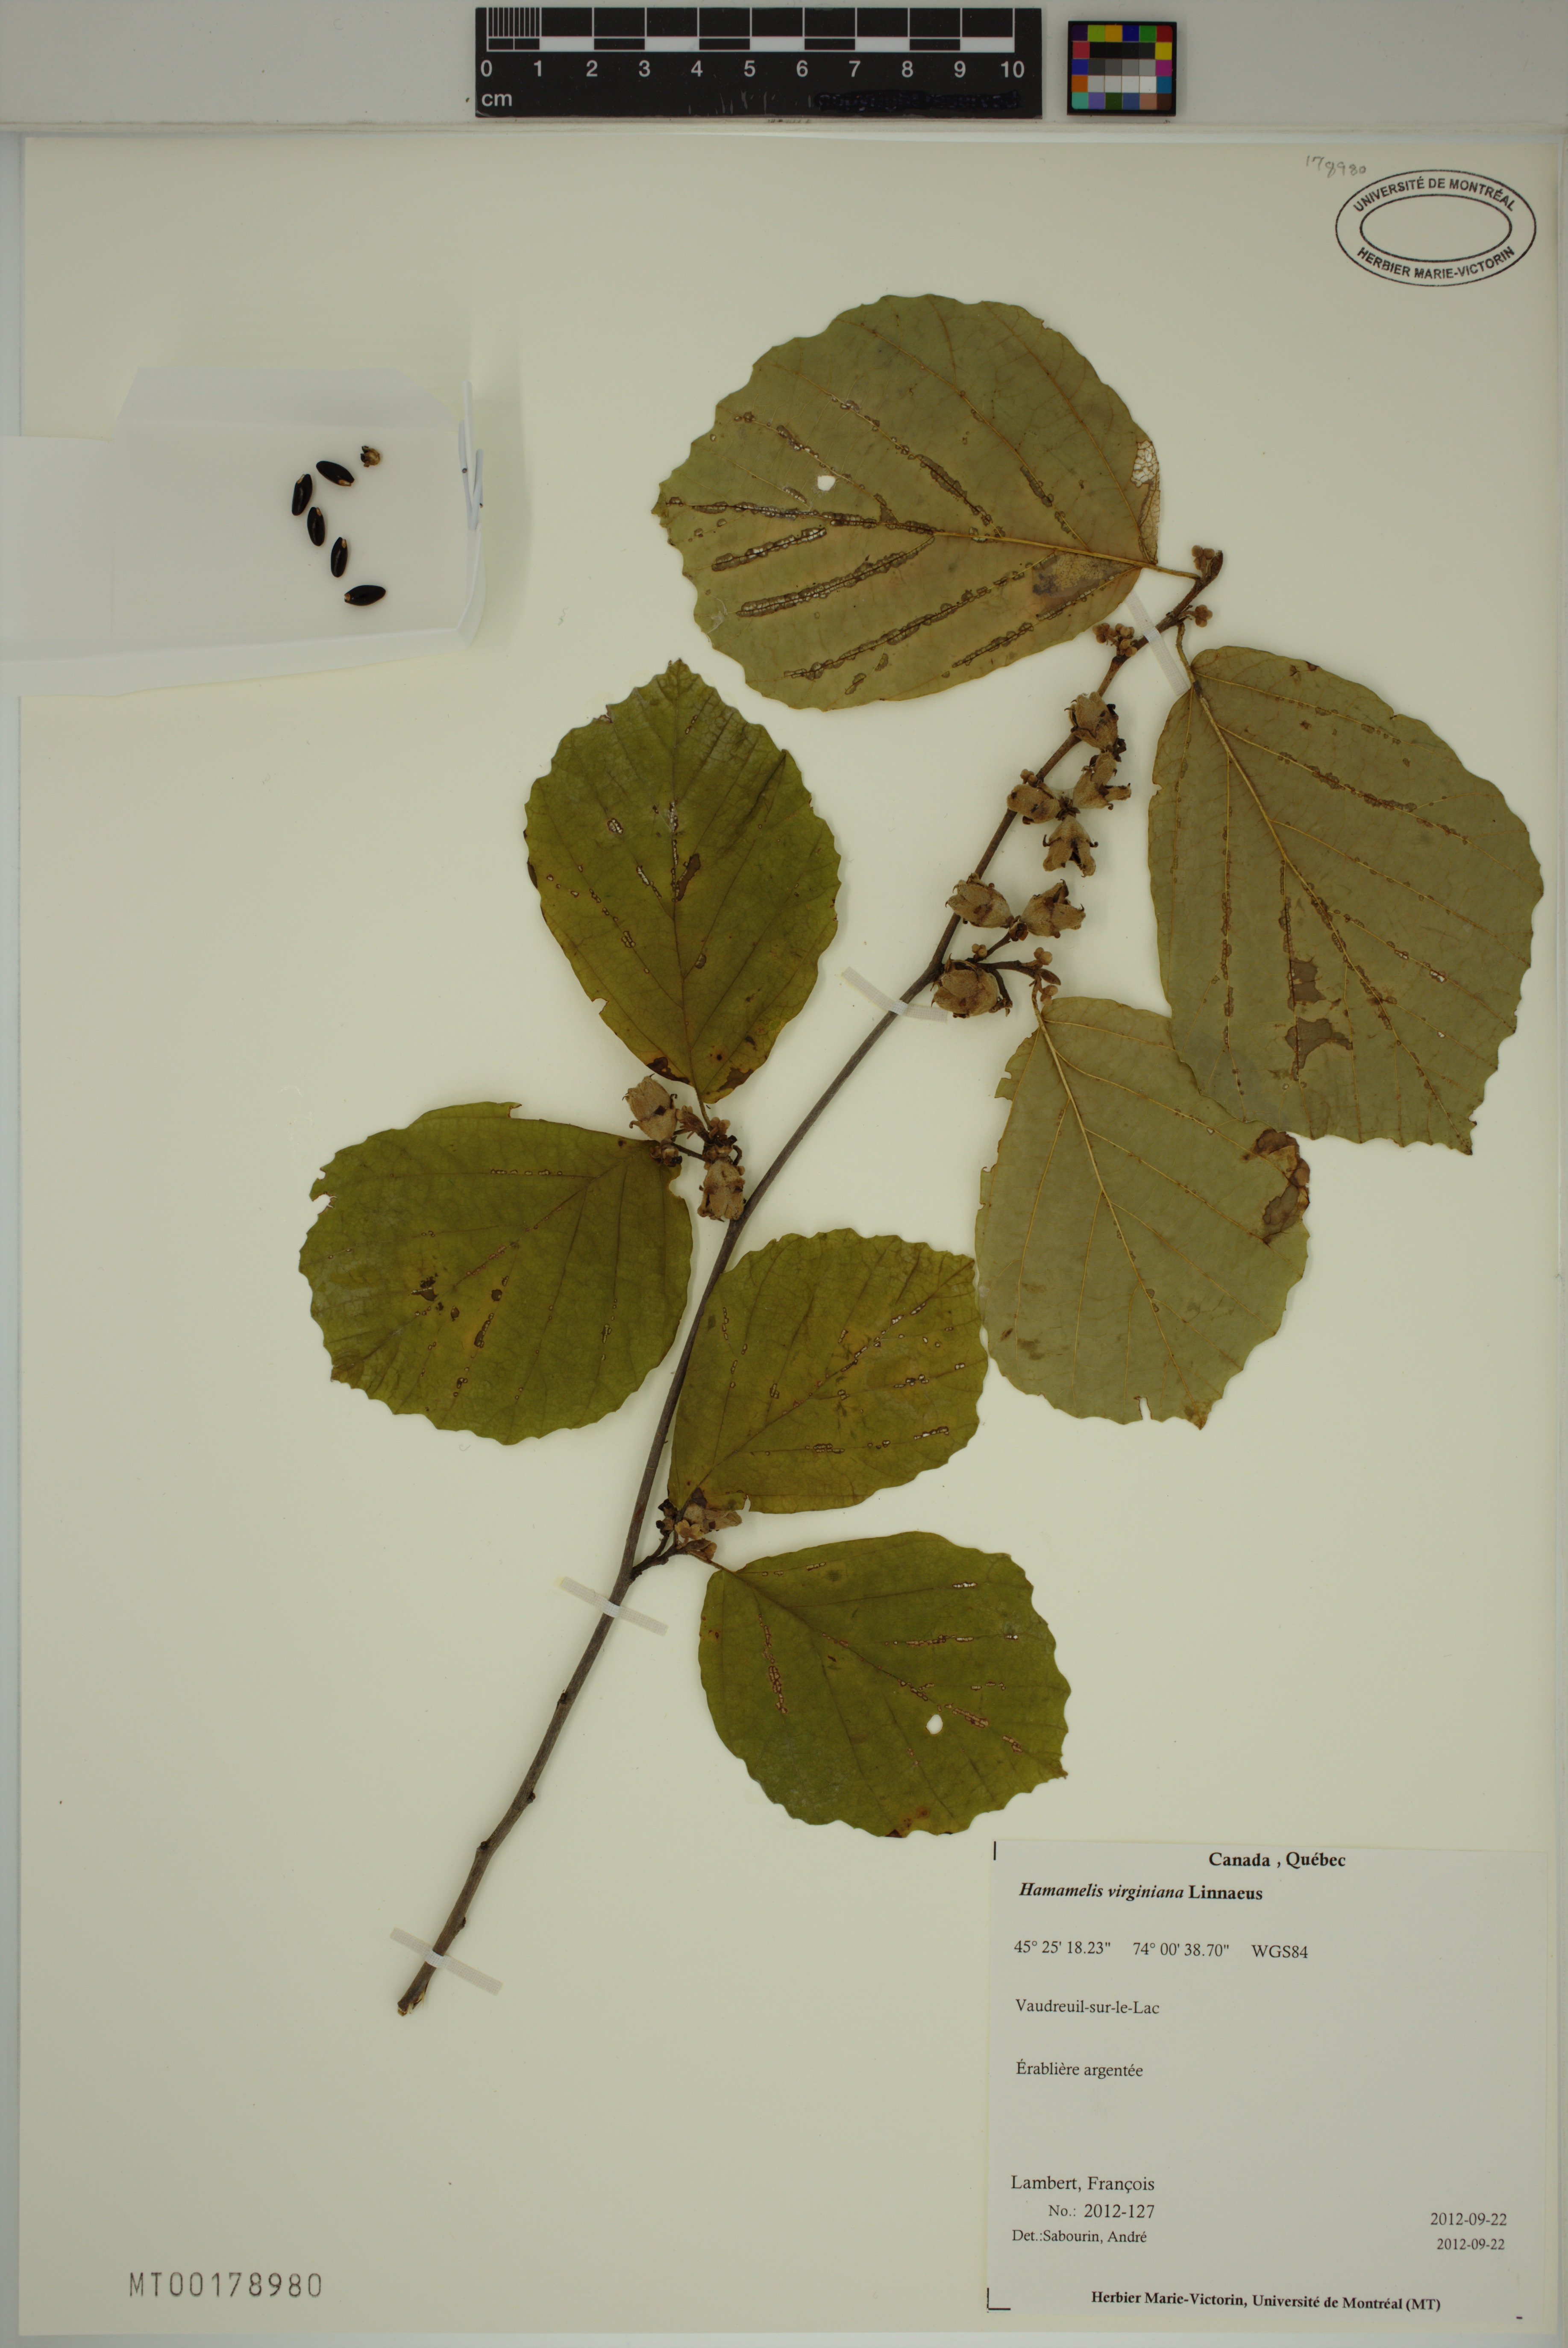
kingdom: Plantae
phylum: Tracheophyta
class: Magnoliopsida
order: Saxifragales
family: Hamamelidaceae
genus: Hamamelis
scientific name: Hamamelis virginiana
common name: Witch-hazel
